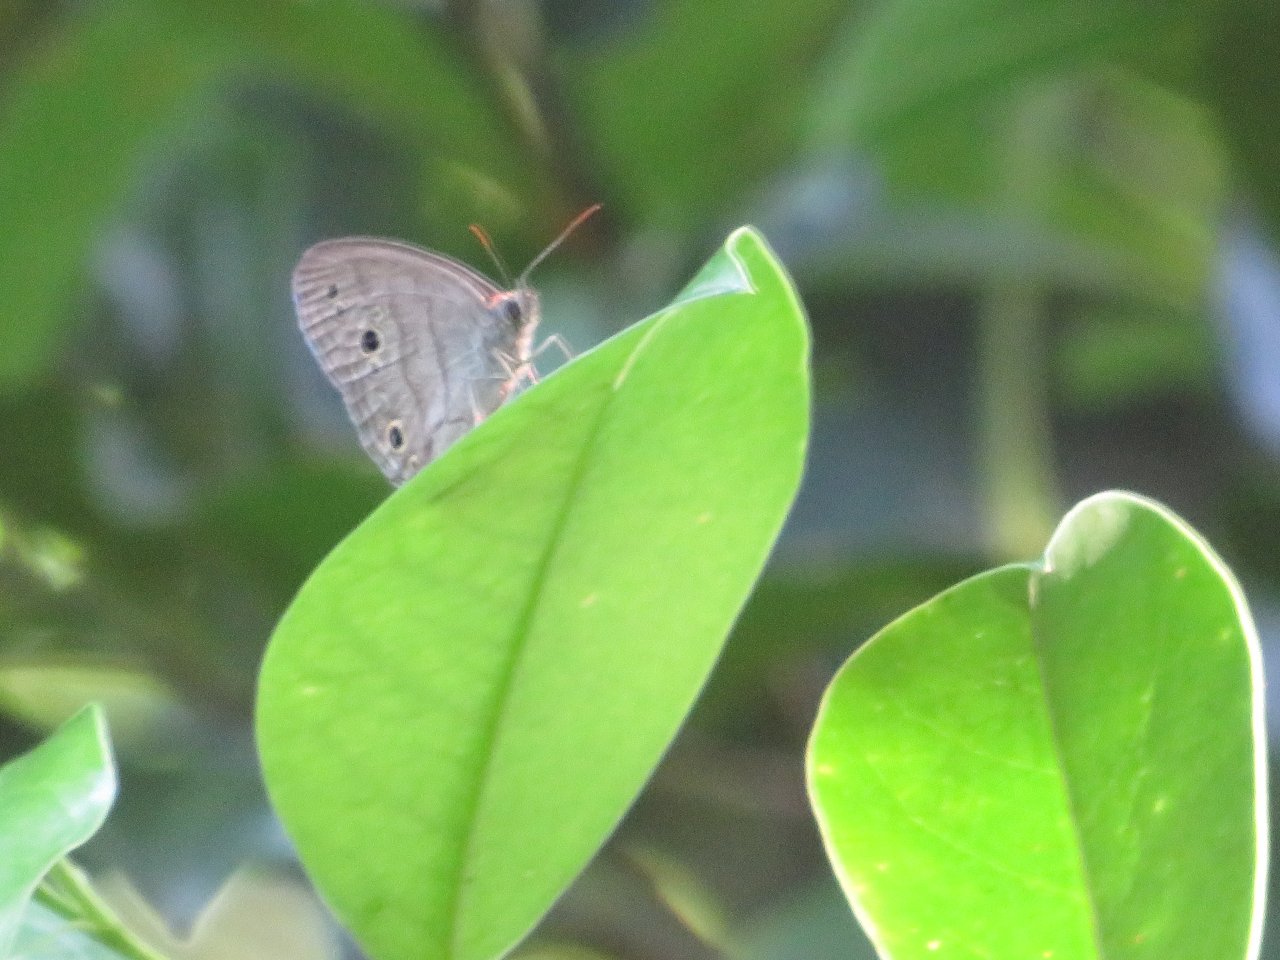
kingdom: Animalia
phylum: Arthropoda
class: Insecta
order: Lepidoptera
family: Lycaenidae
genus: Cyaniris
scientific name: Cyaniris neglecta
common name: Summer Azure
